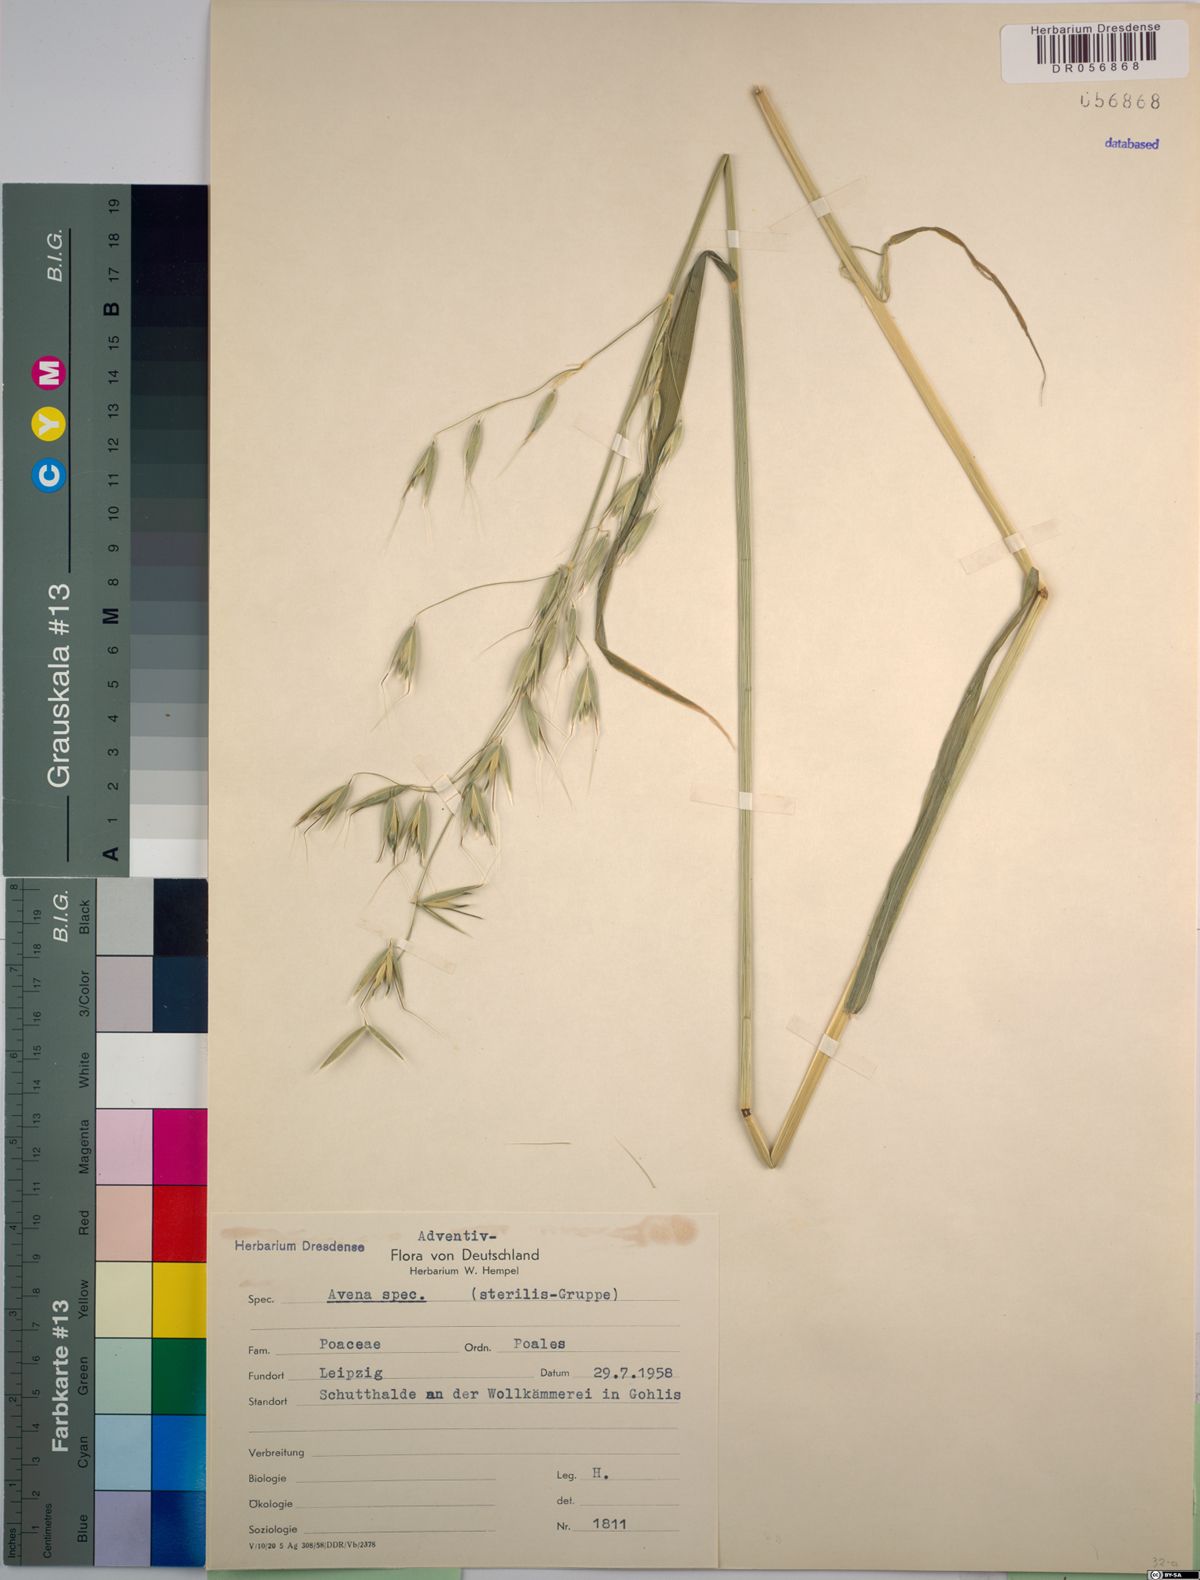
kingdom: Plantae
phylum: Tracheophyta
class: Liliopsida
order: Poales
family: Poaceae
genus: Avena
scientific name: Avena
